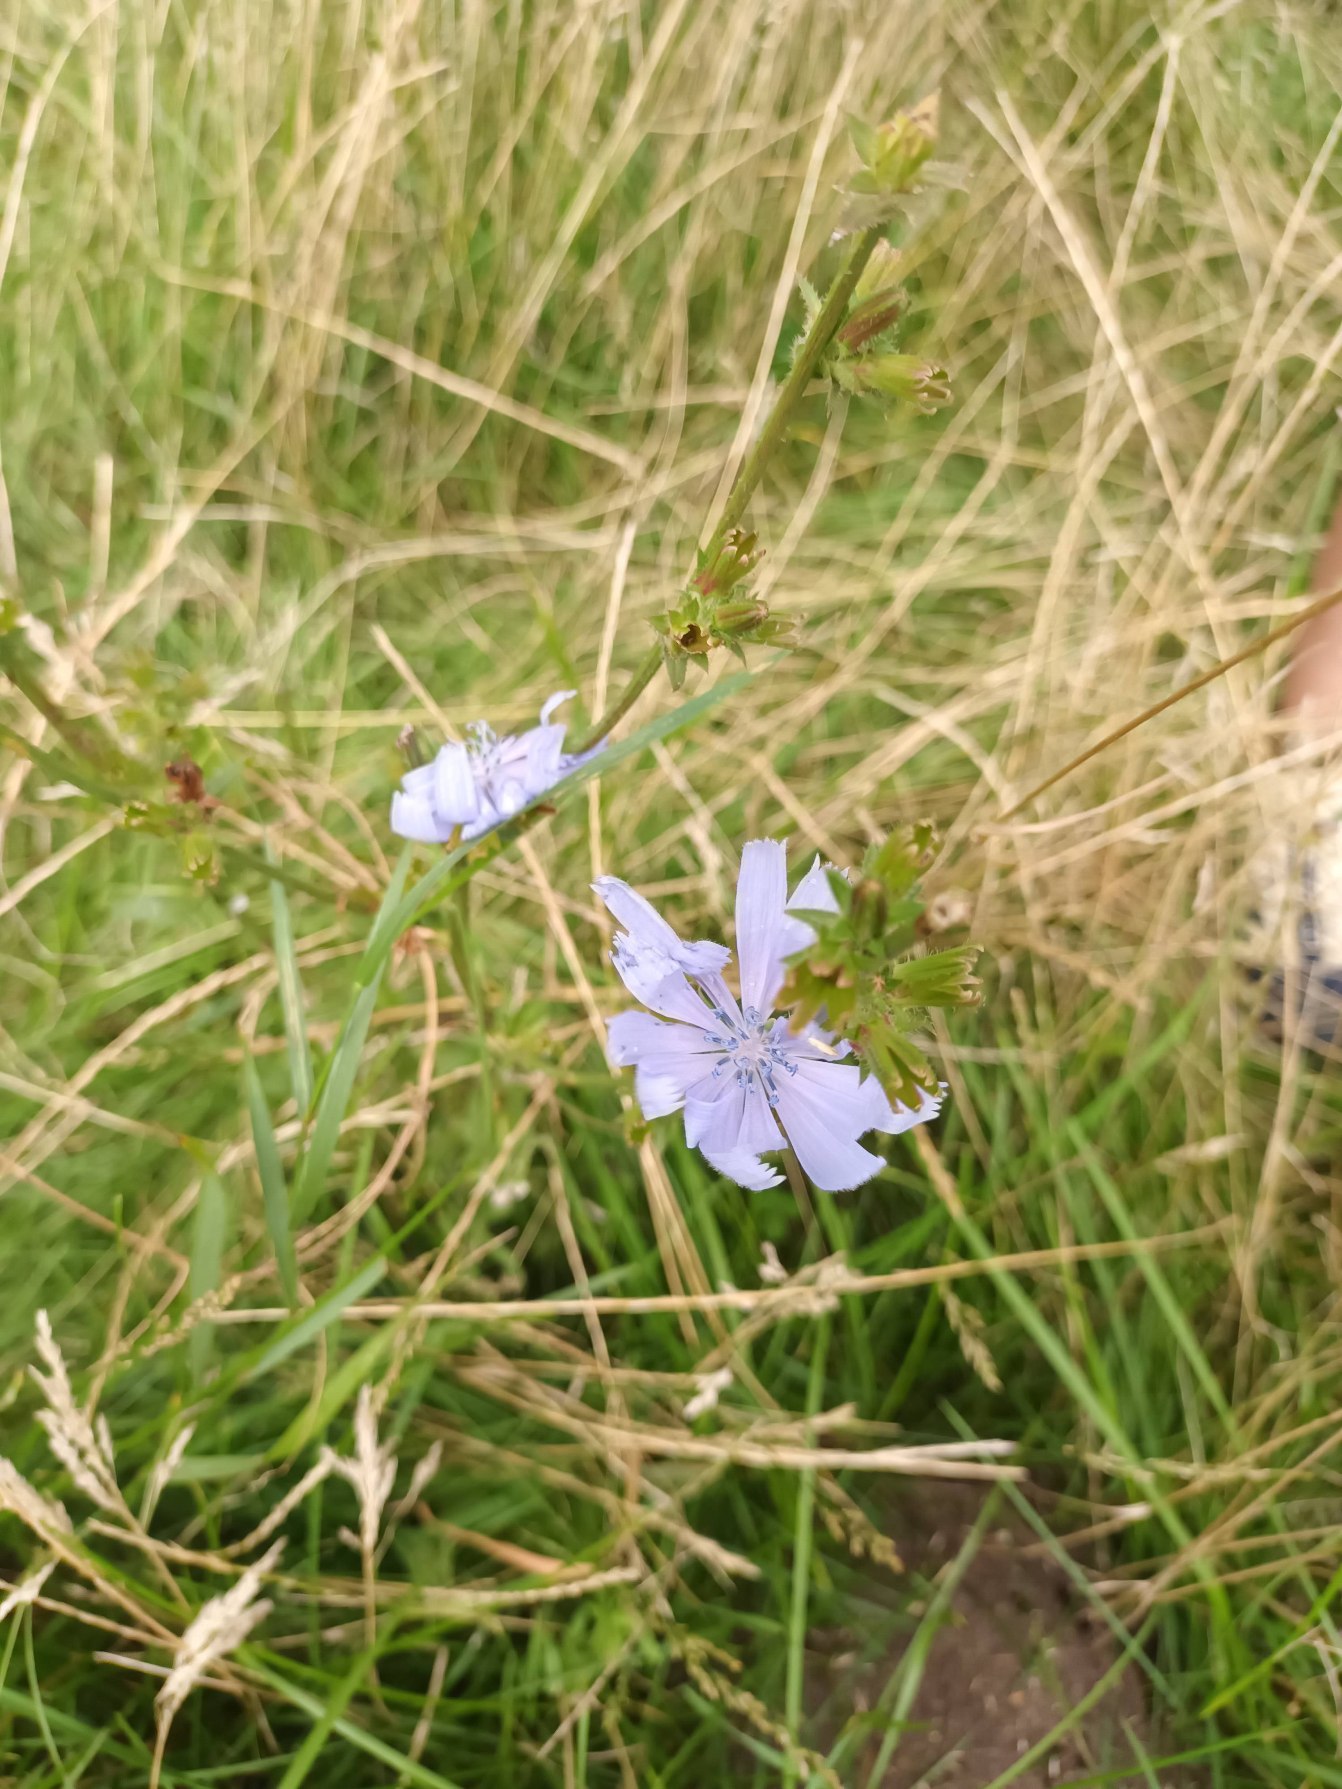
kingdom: Plantae
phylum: Tracheophyta
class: Magnoliopsida
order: Asterales
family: Asteraceae
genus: Cichorium
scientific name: Cichorium intybus
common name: Cikorie
